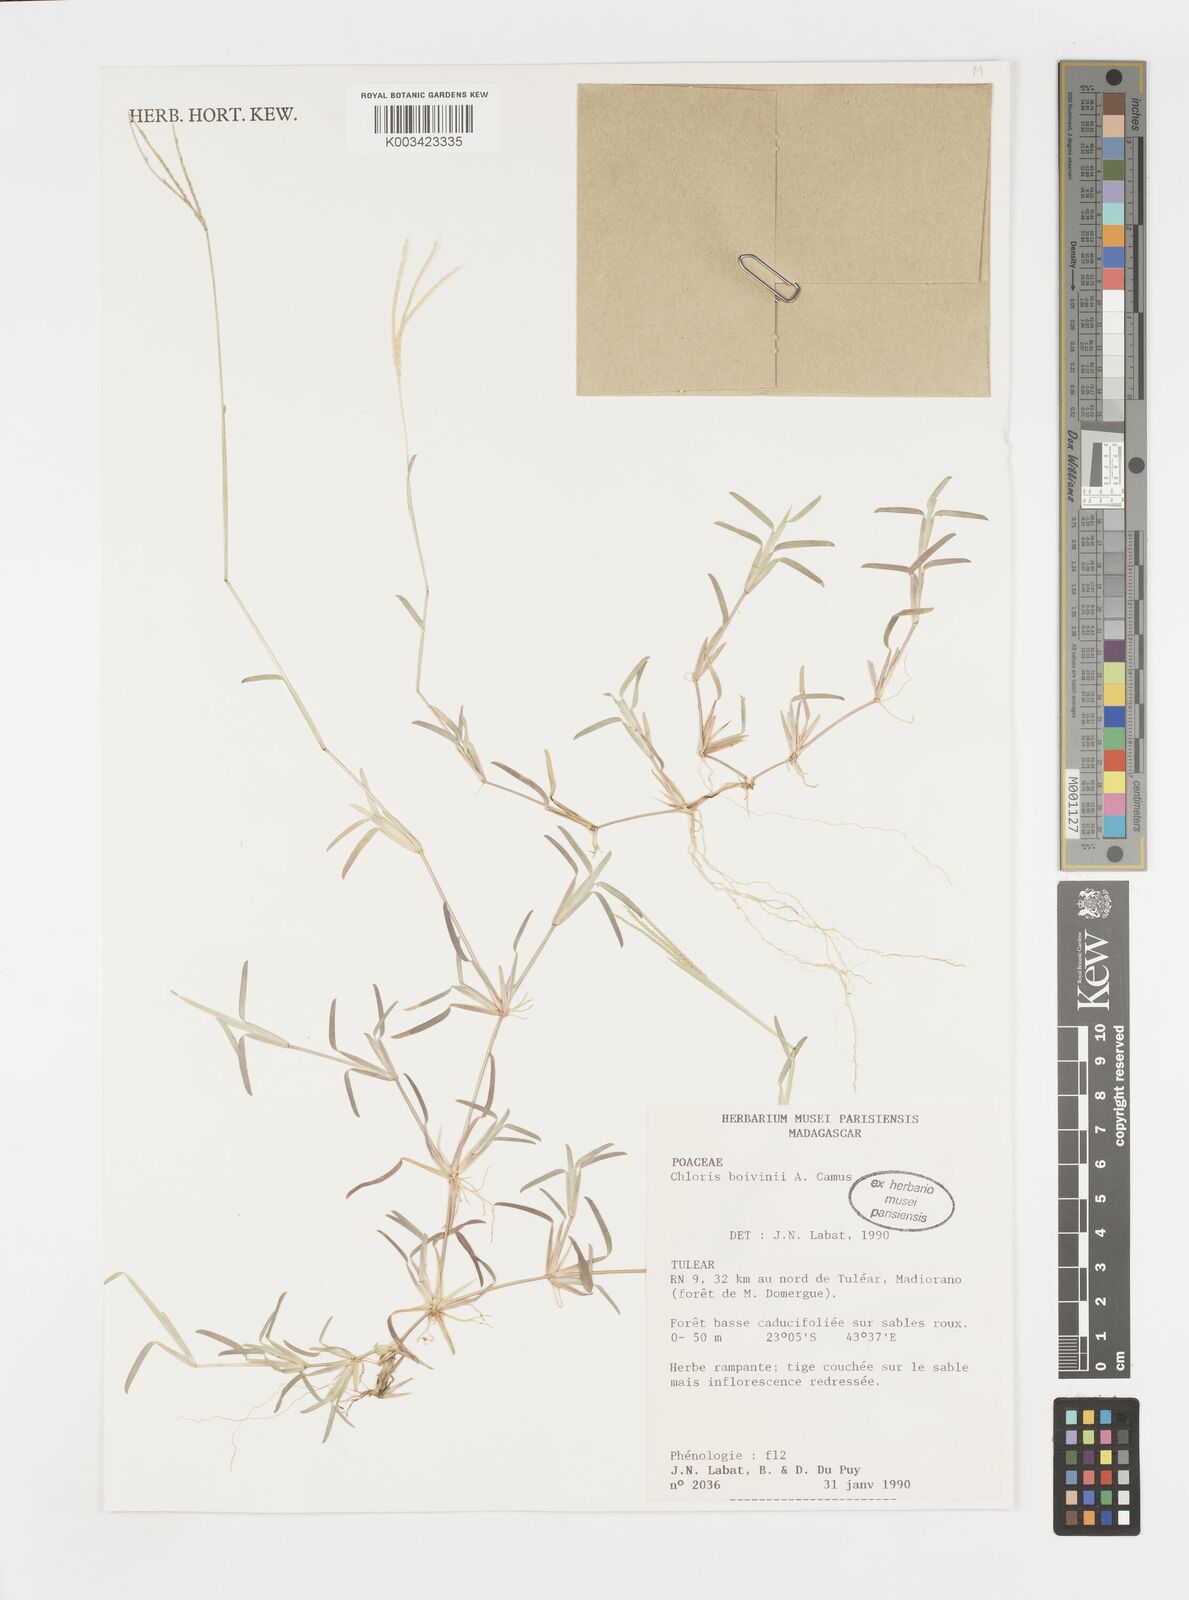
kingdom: Plantae
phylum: Tracheophyta
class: Liliopsida
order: Poales
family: Poaceae
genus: Daknopholis
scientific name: Daknopholis boivinii
